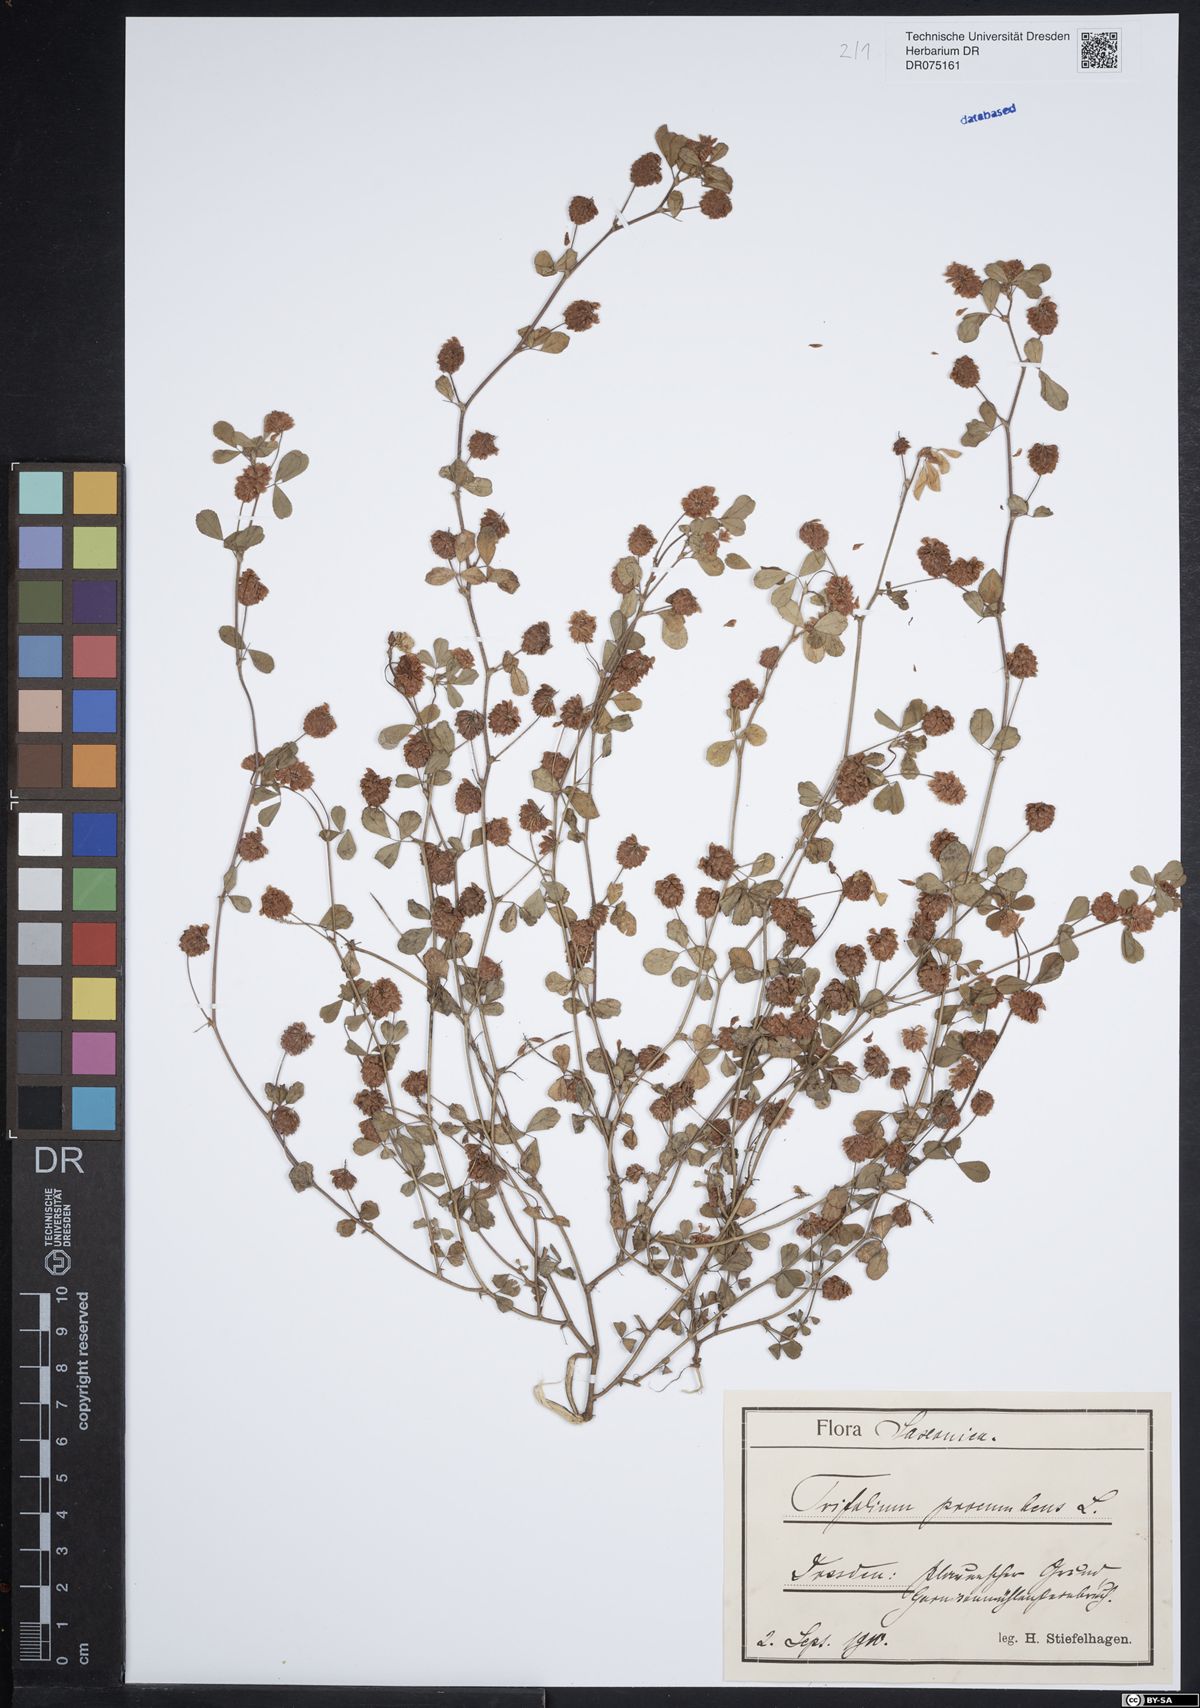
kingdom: Plantae
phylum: Tracheophyta
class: Magnoliopsida
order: Fabales
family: Fabaceae
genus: Trifolium
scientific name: Trifolium campestre
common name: Field clover
